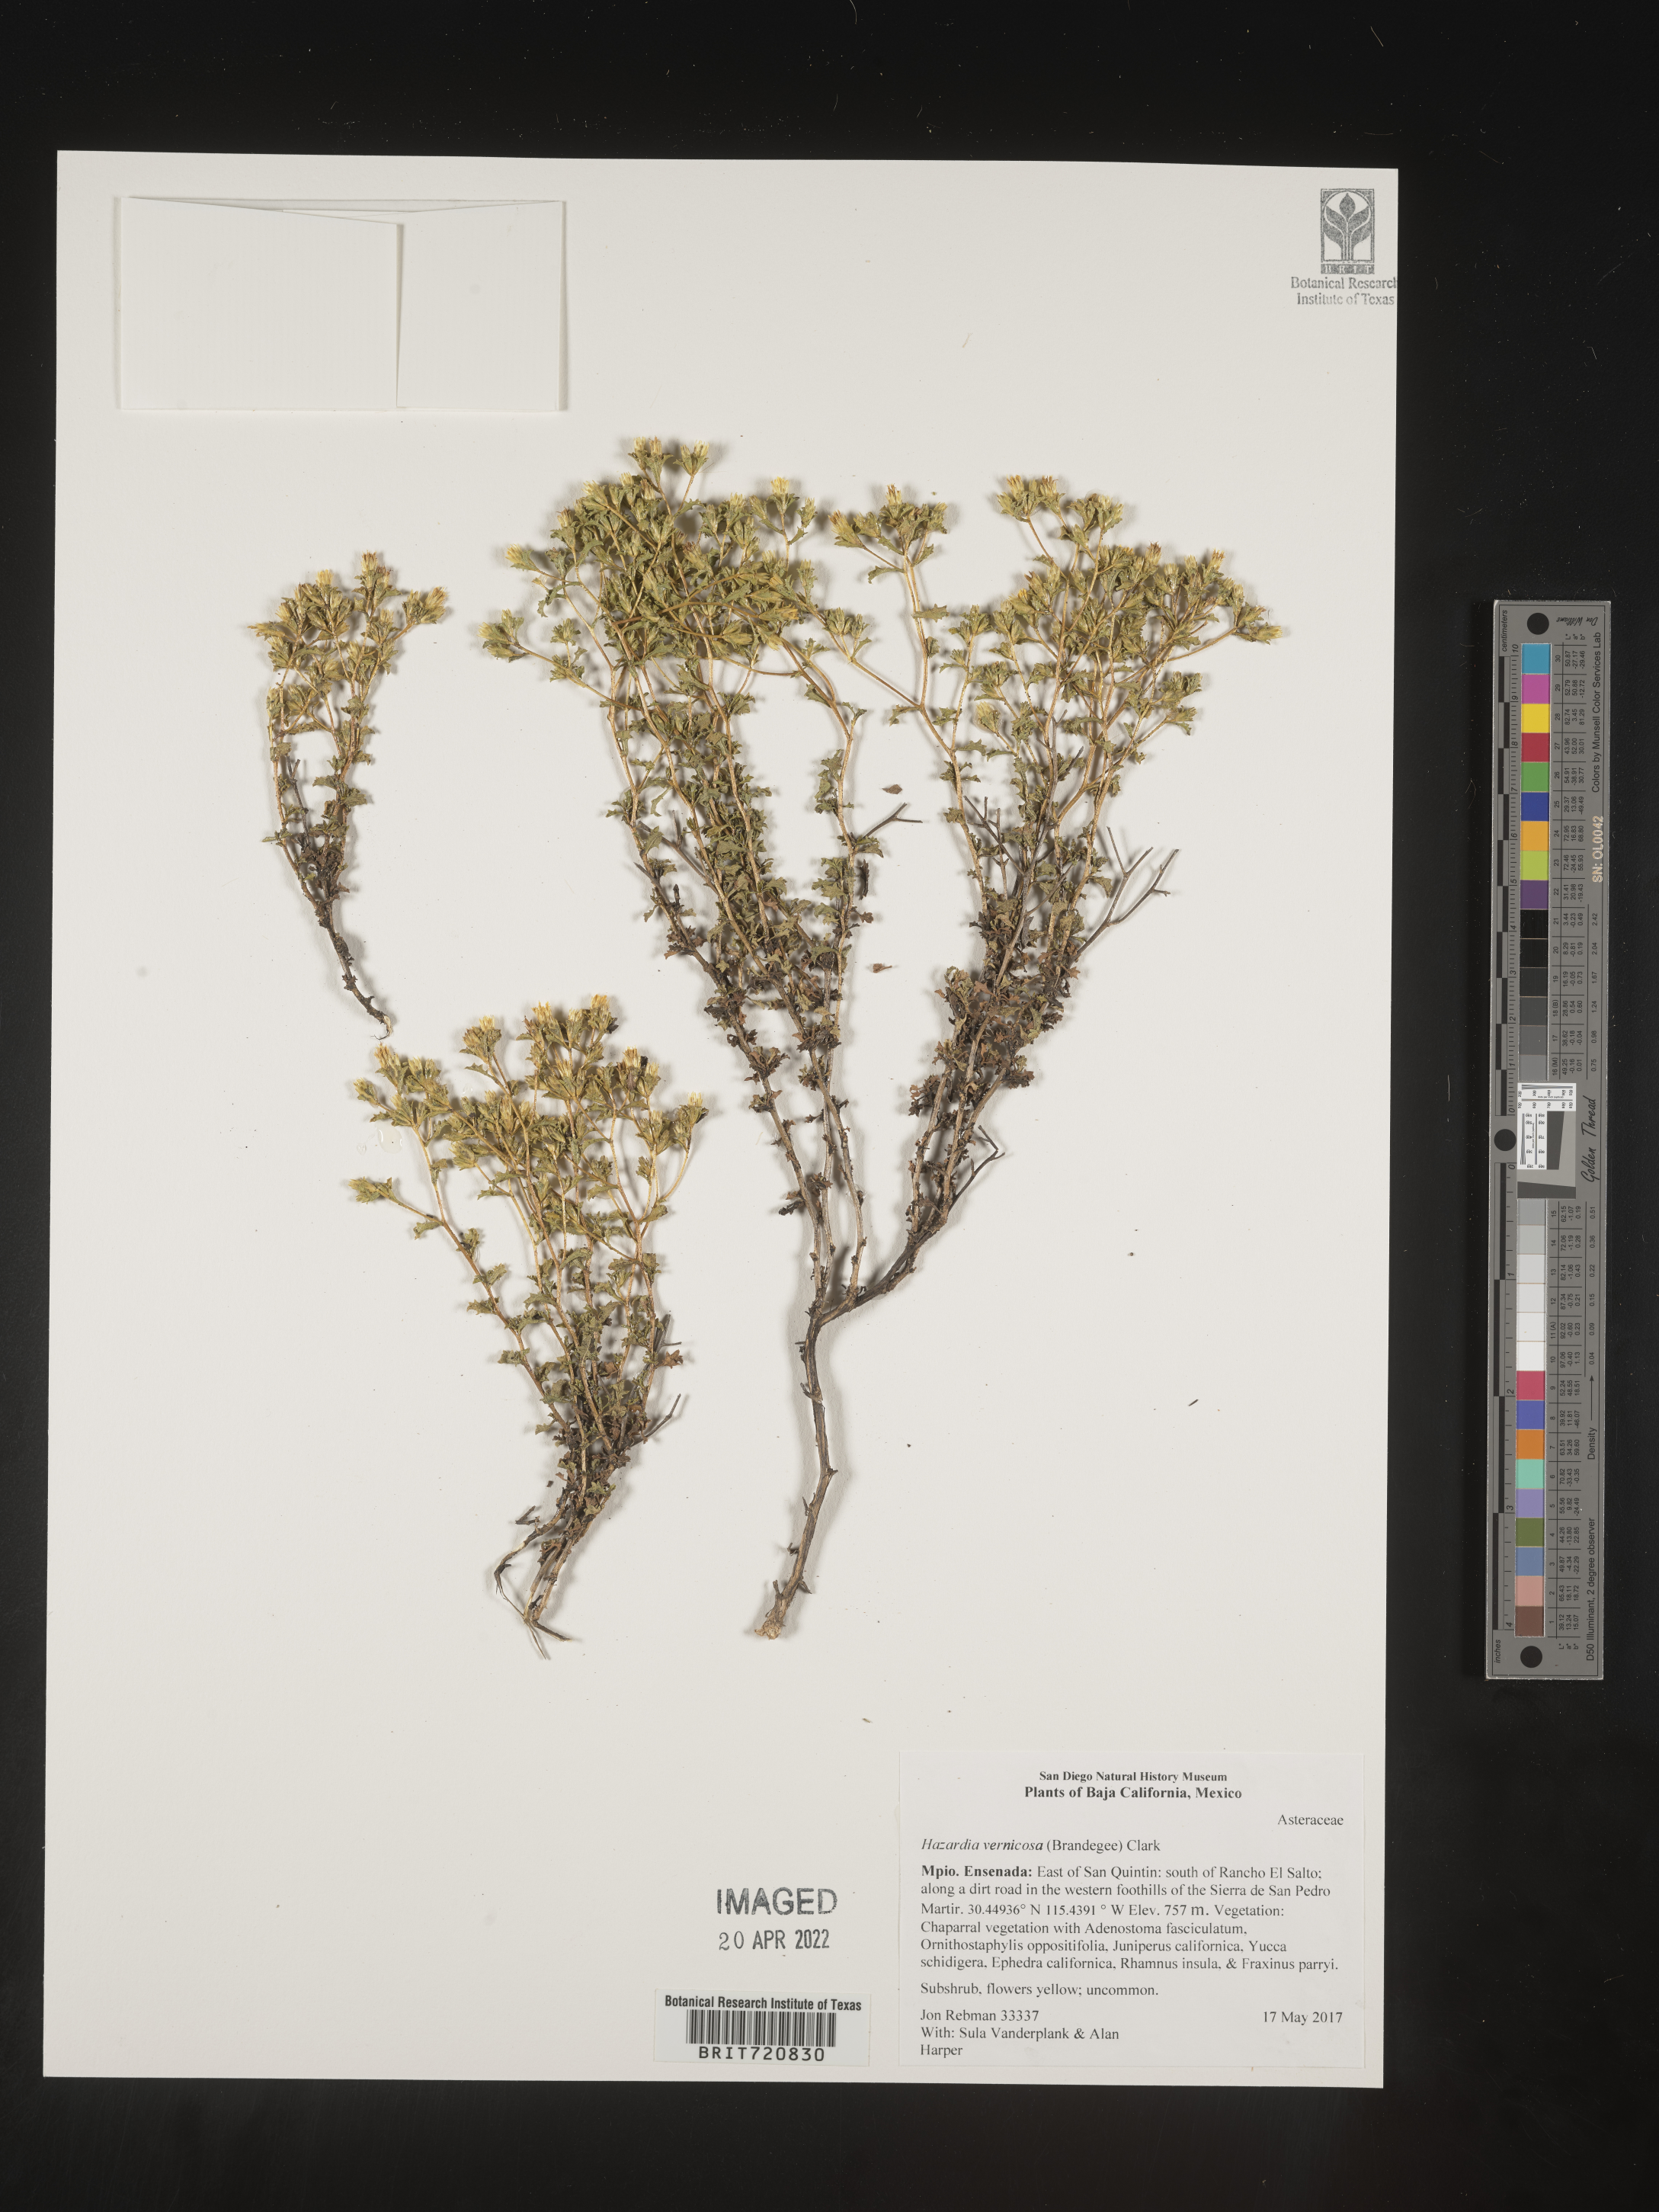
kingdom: Plantae
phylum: Tracheophyta
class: Magnoliopsida
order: Asterales
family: Asteraceae
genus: Hazardia
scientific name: Hazardia
